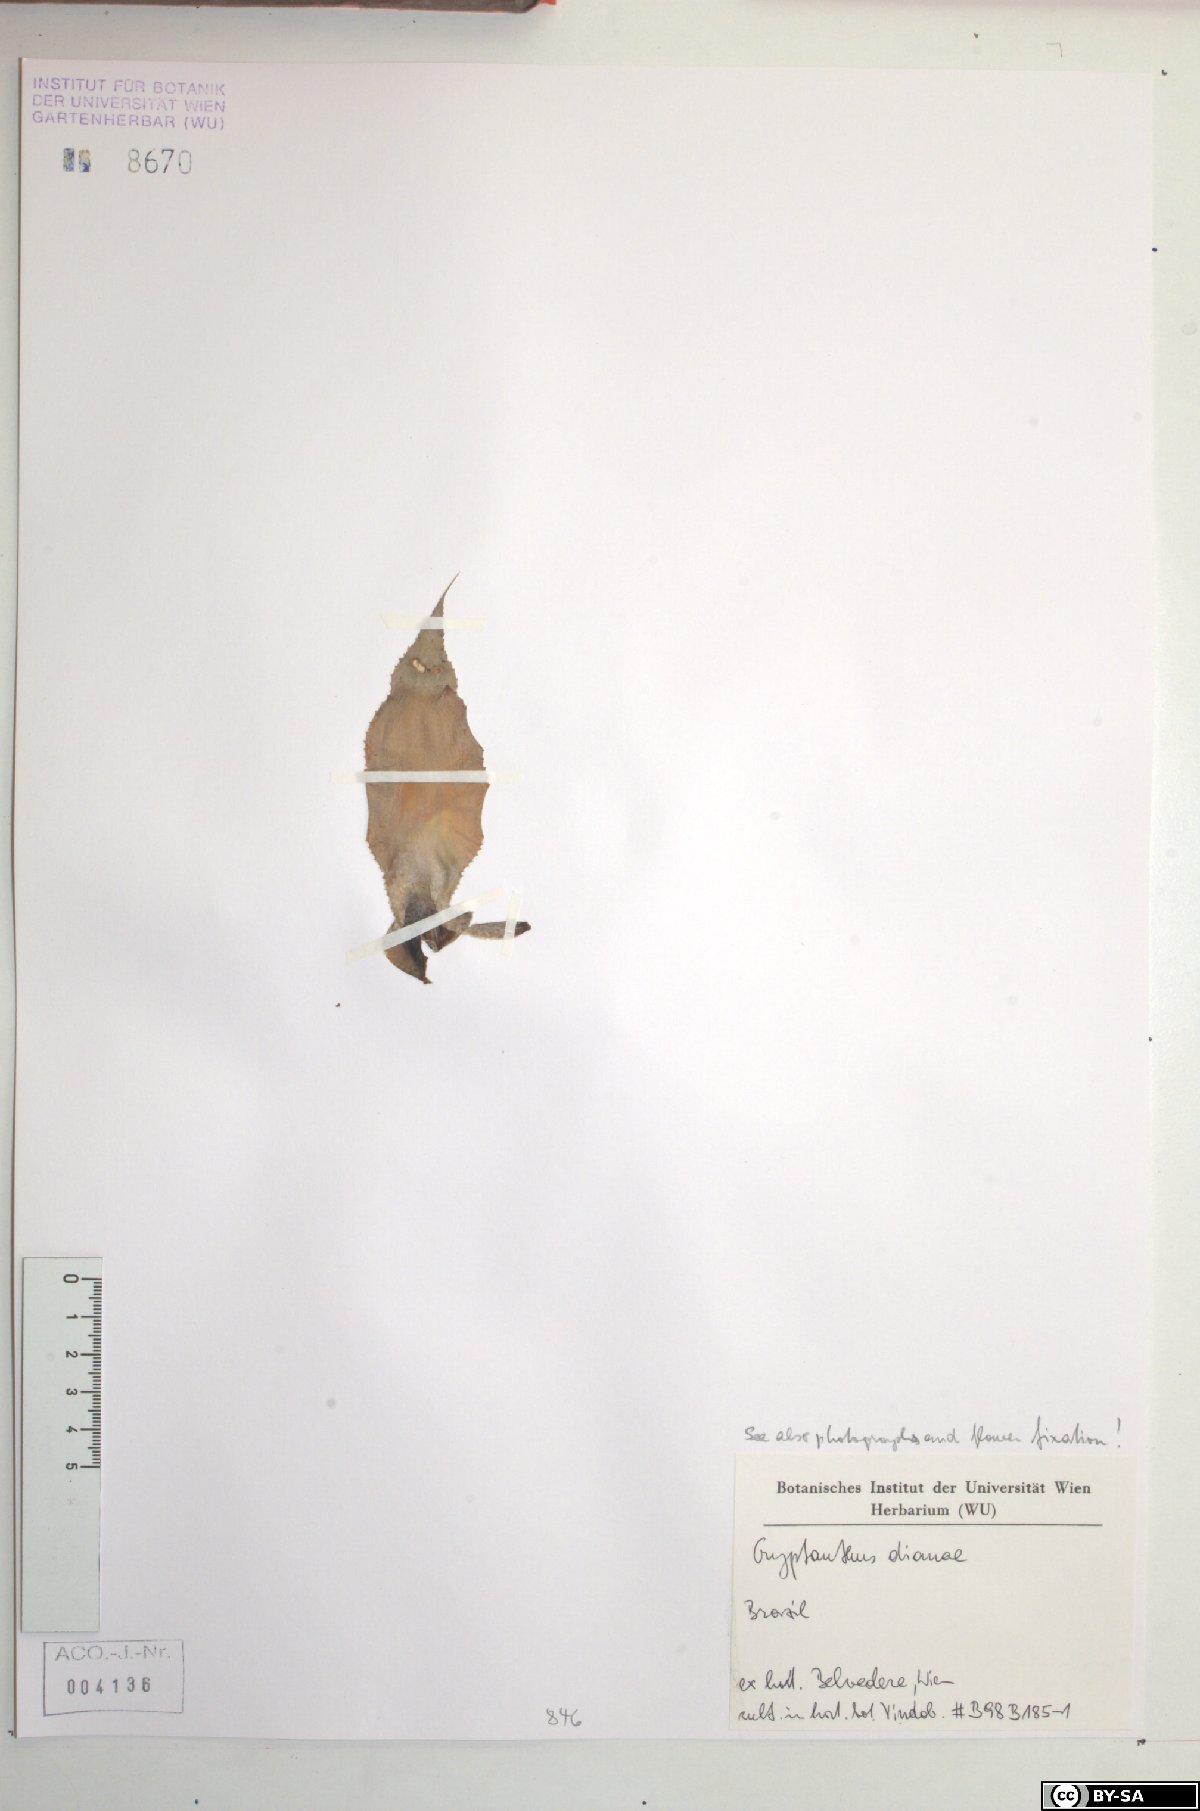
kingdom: Plantae
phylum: Tracheophyta
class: Liliopsida
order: Poales
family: Bromeliaceae
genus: Cryptanthus
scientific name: Cryptanthus dianae
